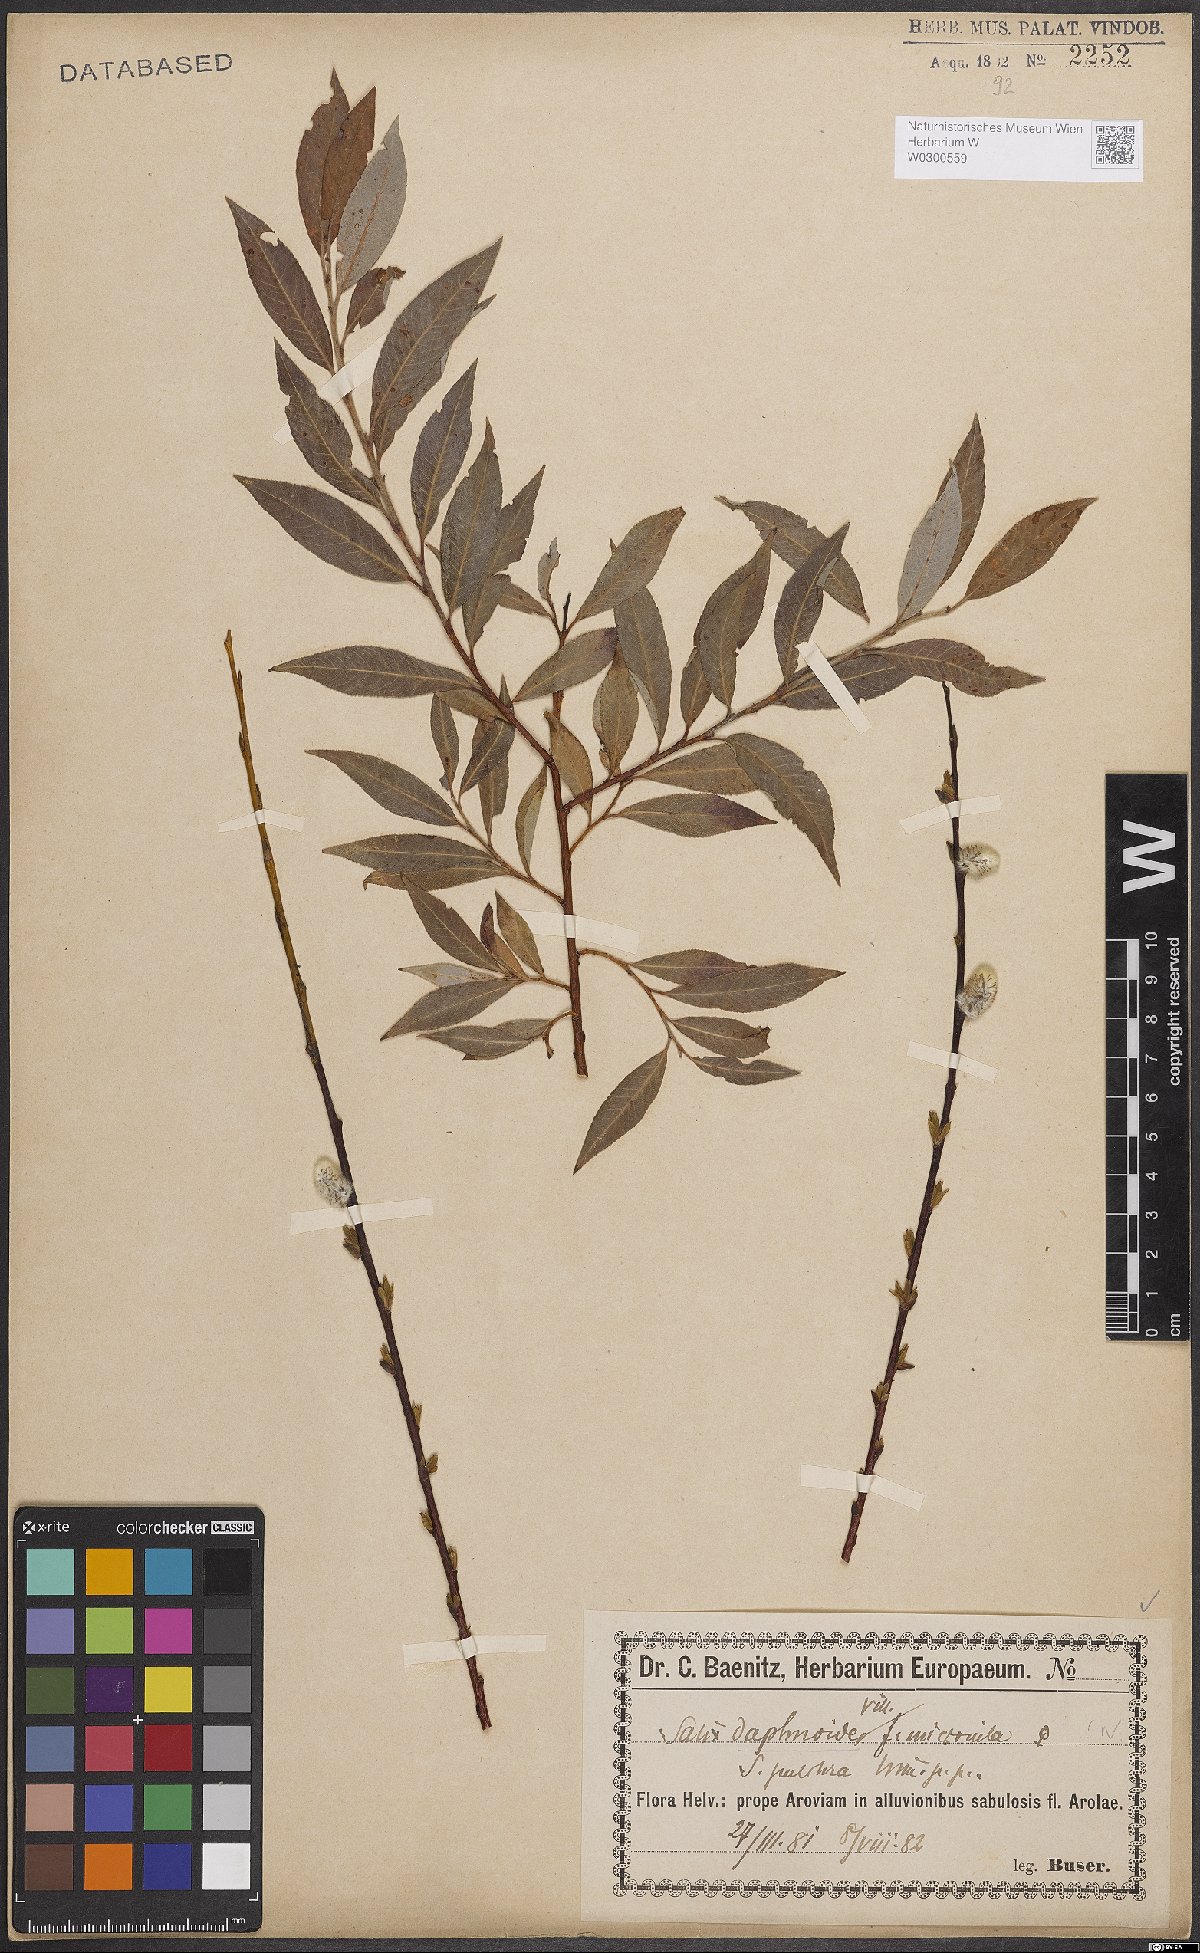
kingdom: Plantae
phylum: Tracheophyta
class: Magnoliopsida
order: Malpighiales
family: Salicaceae
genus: Salix
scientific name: Salix daphnoides
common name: European violet-willow
